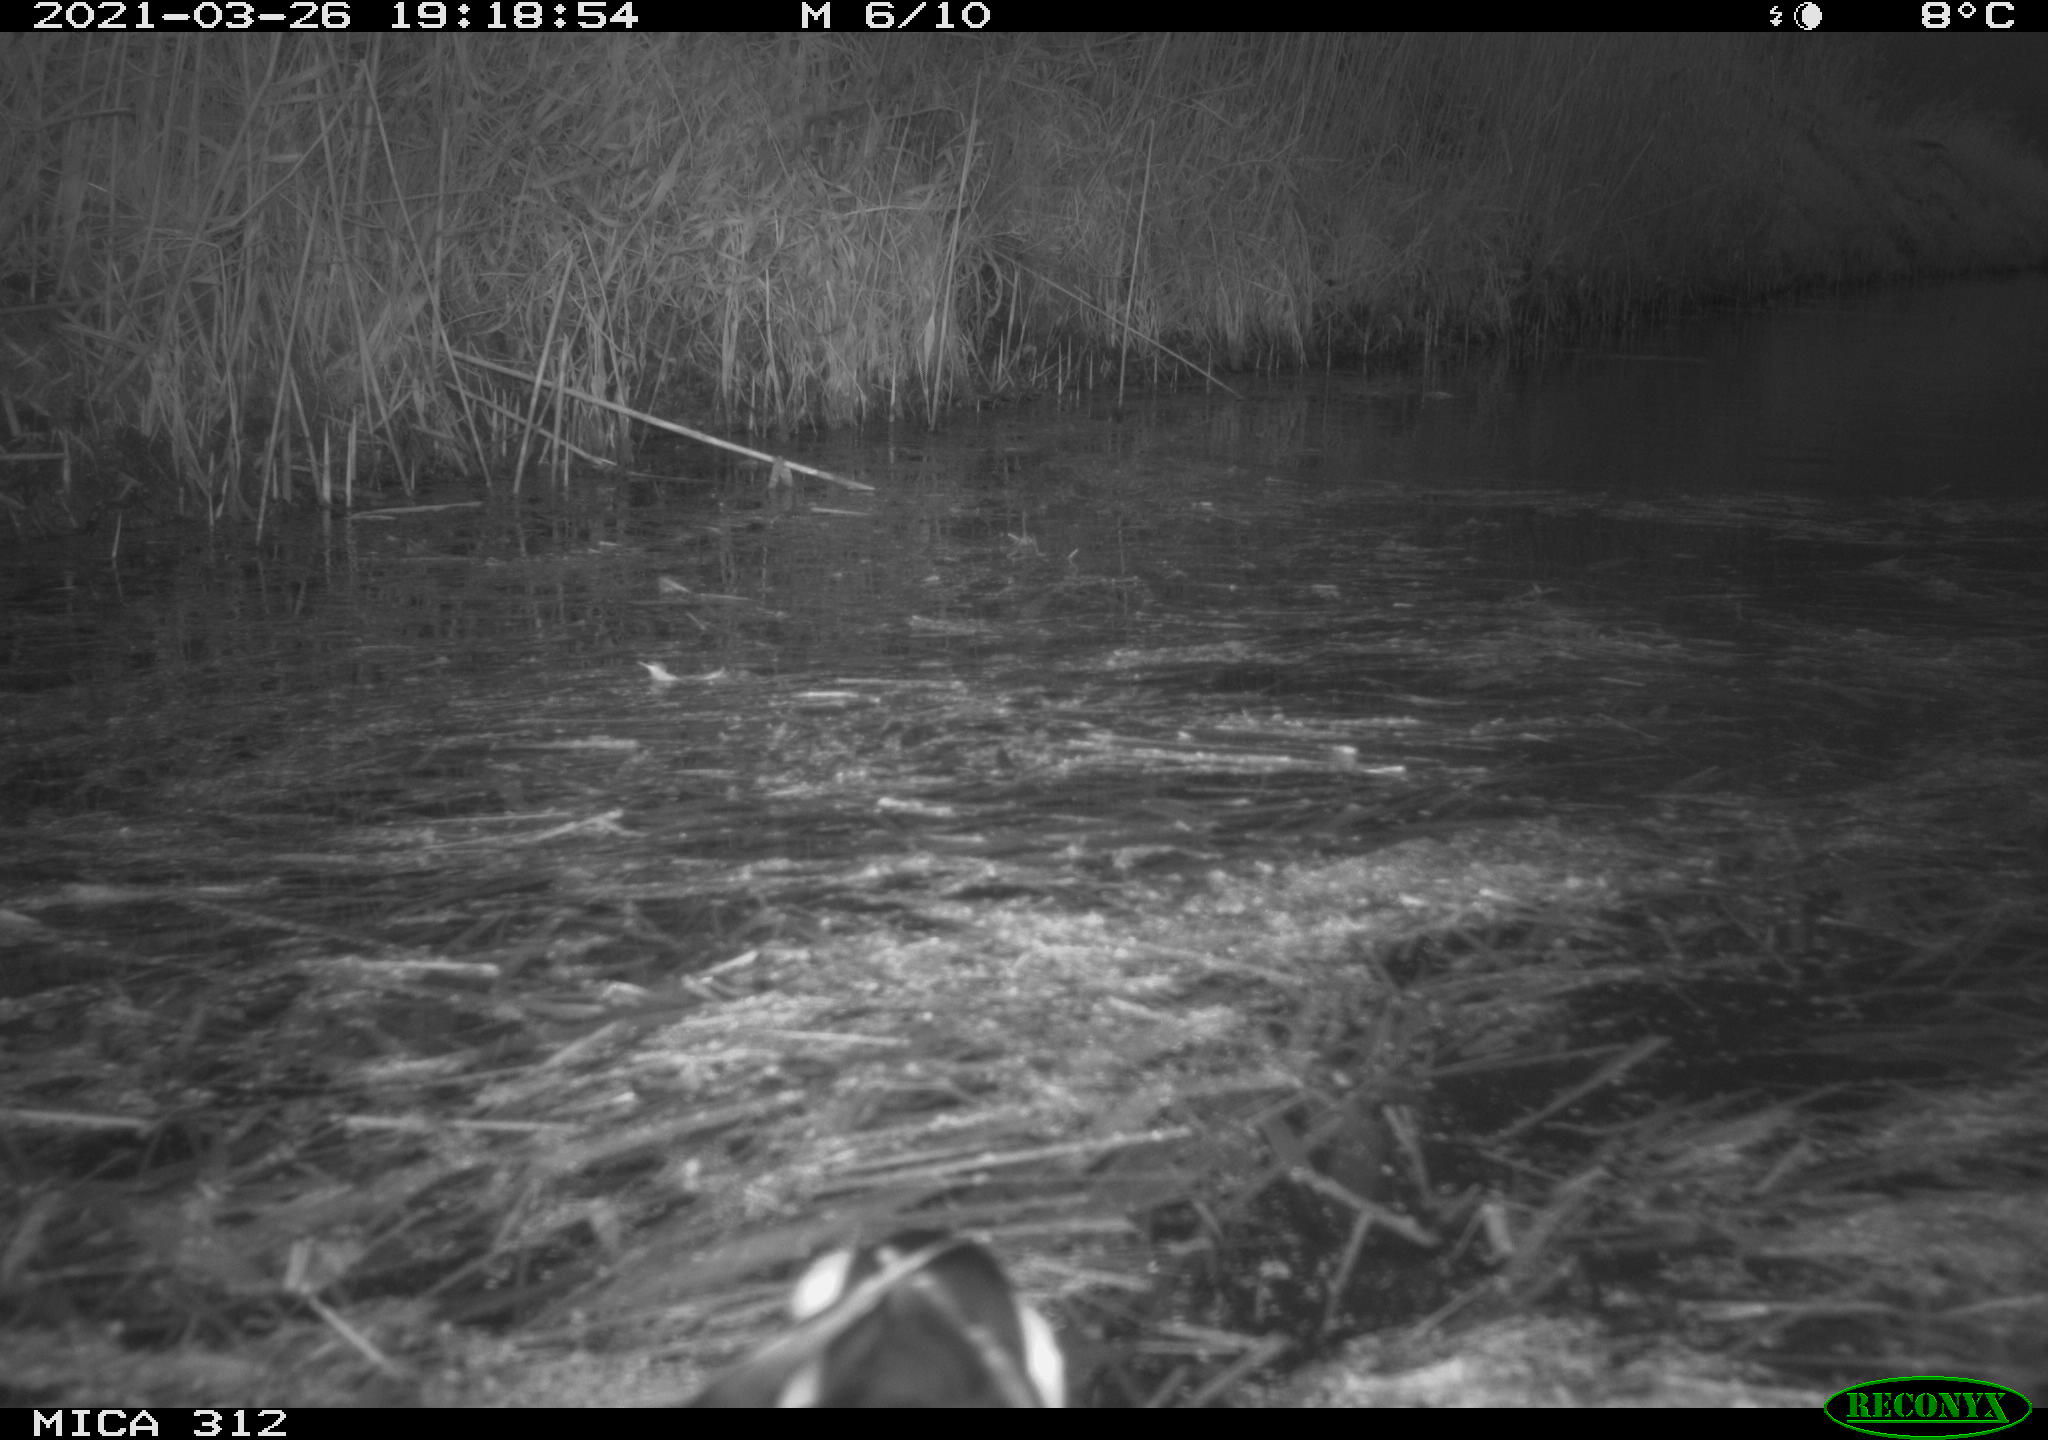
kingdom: Animalia
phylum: Chordata
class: Aves
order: Gruiformes
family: Rallidae
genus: Gallinula
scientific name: Gallinula chloropus
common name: Common moorhen
